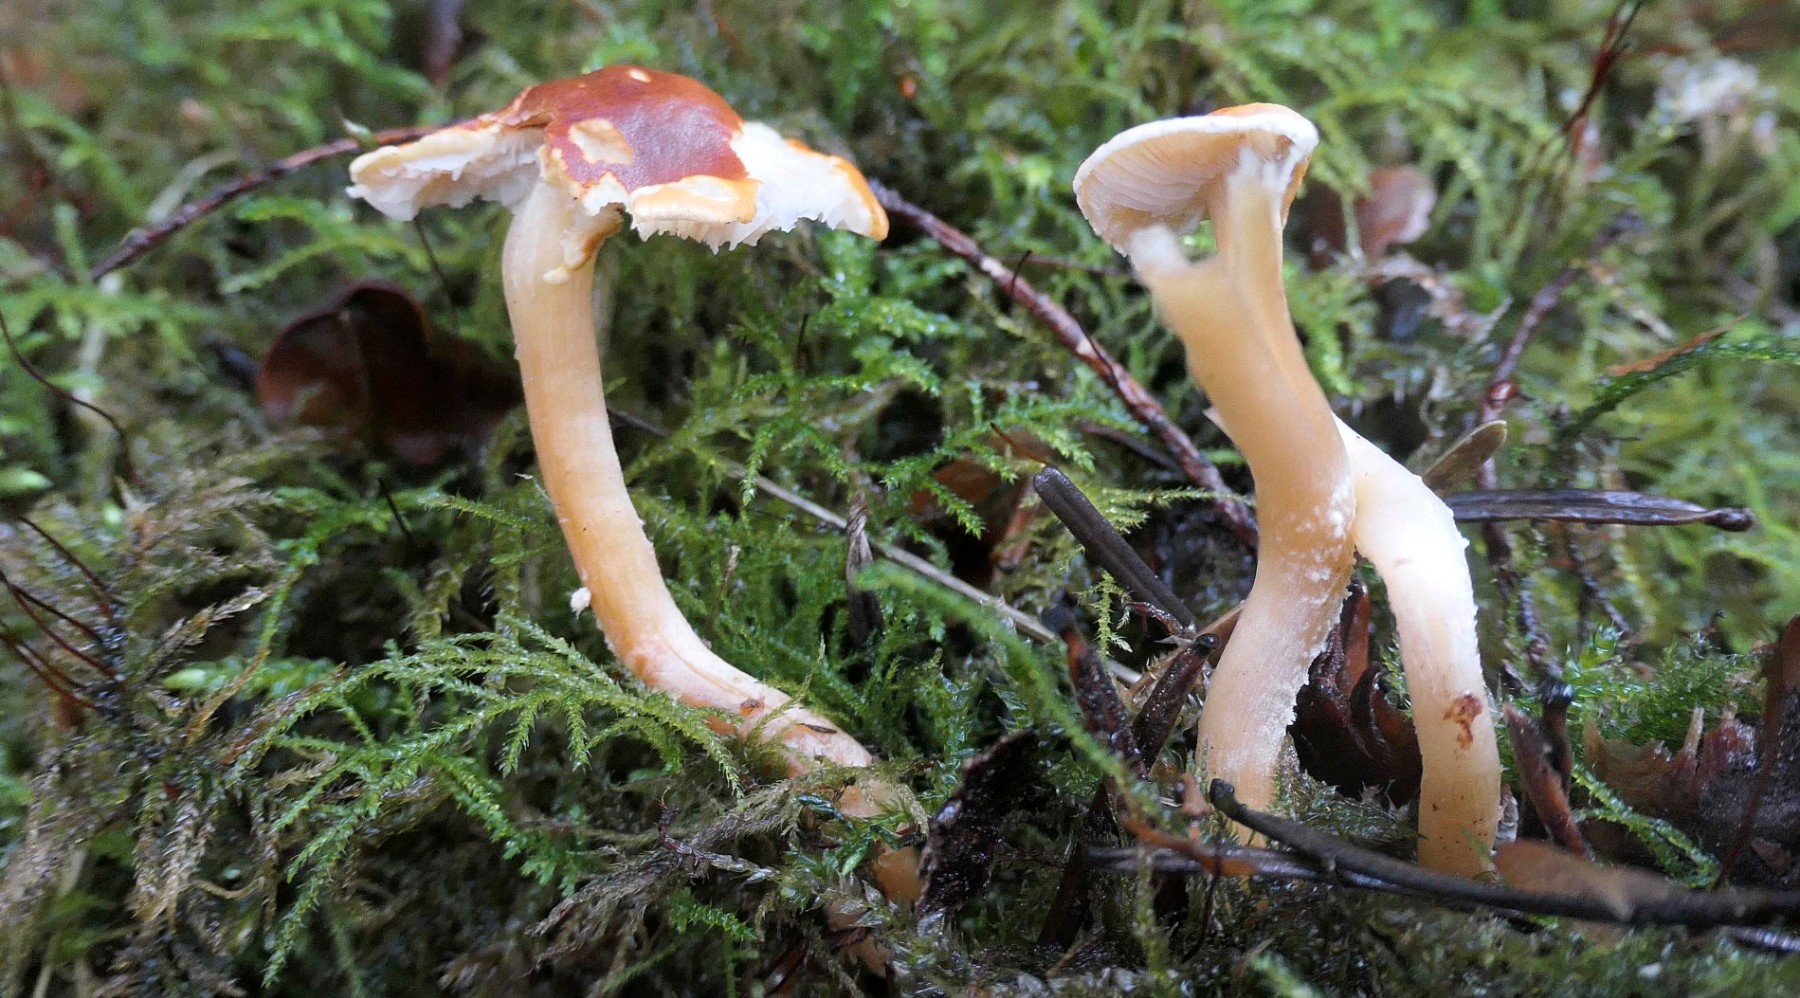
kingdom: Fungi
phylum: Basidiomycota
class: Agaricomycetes
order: Agaricales
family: Tricholomataceae
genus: Cystoderma
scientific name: Cystoderma simulatum
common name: ved-grynhat
